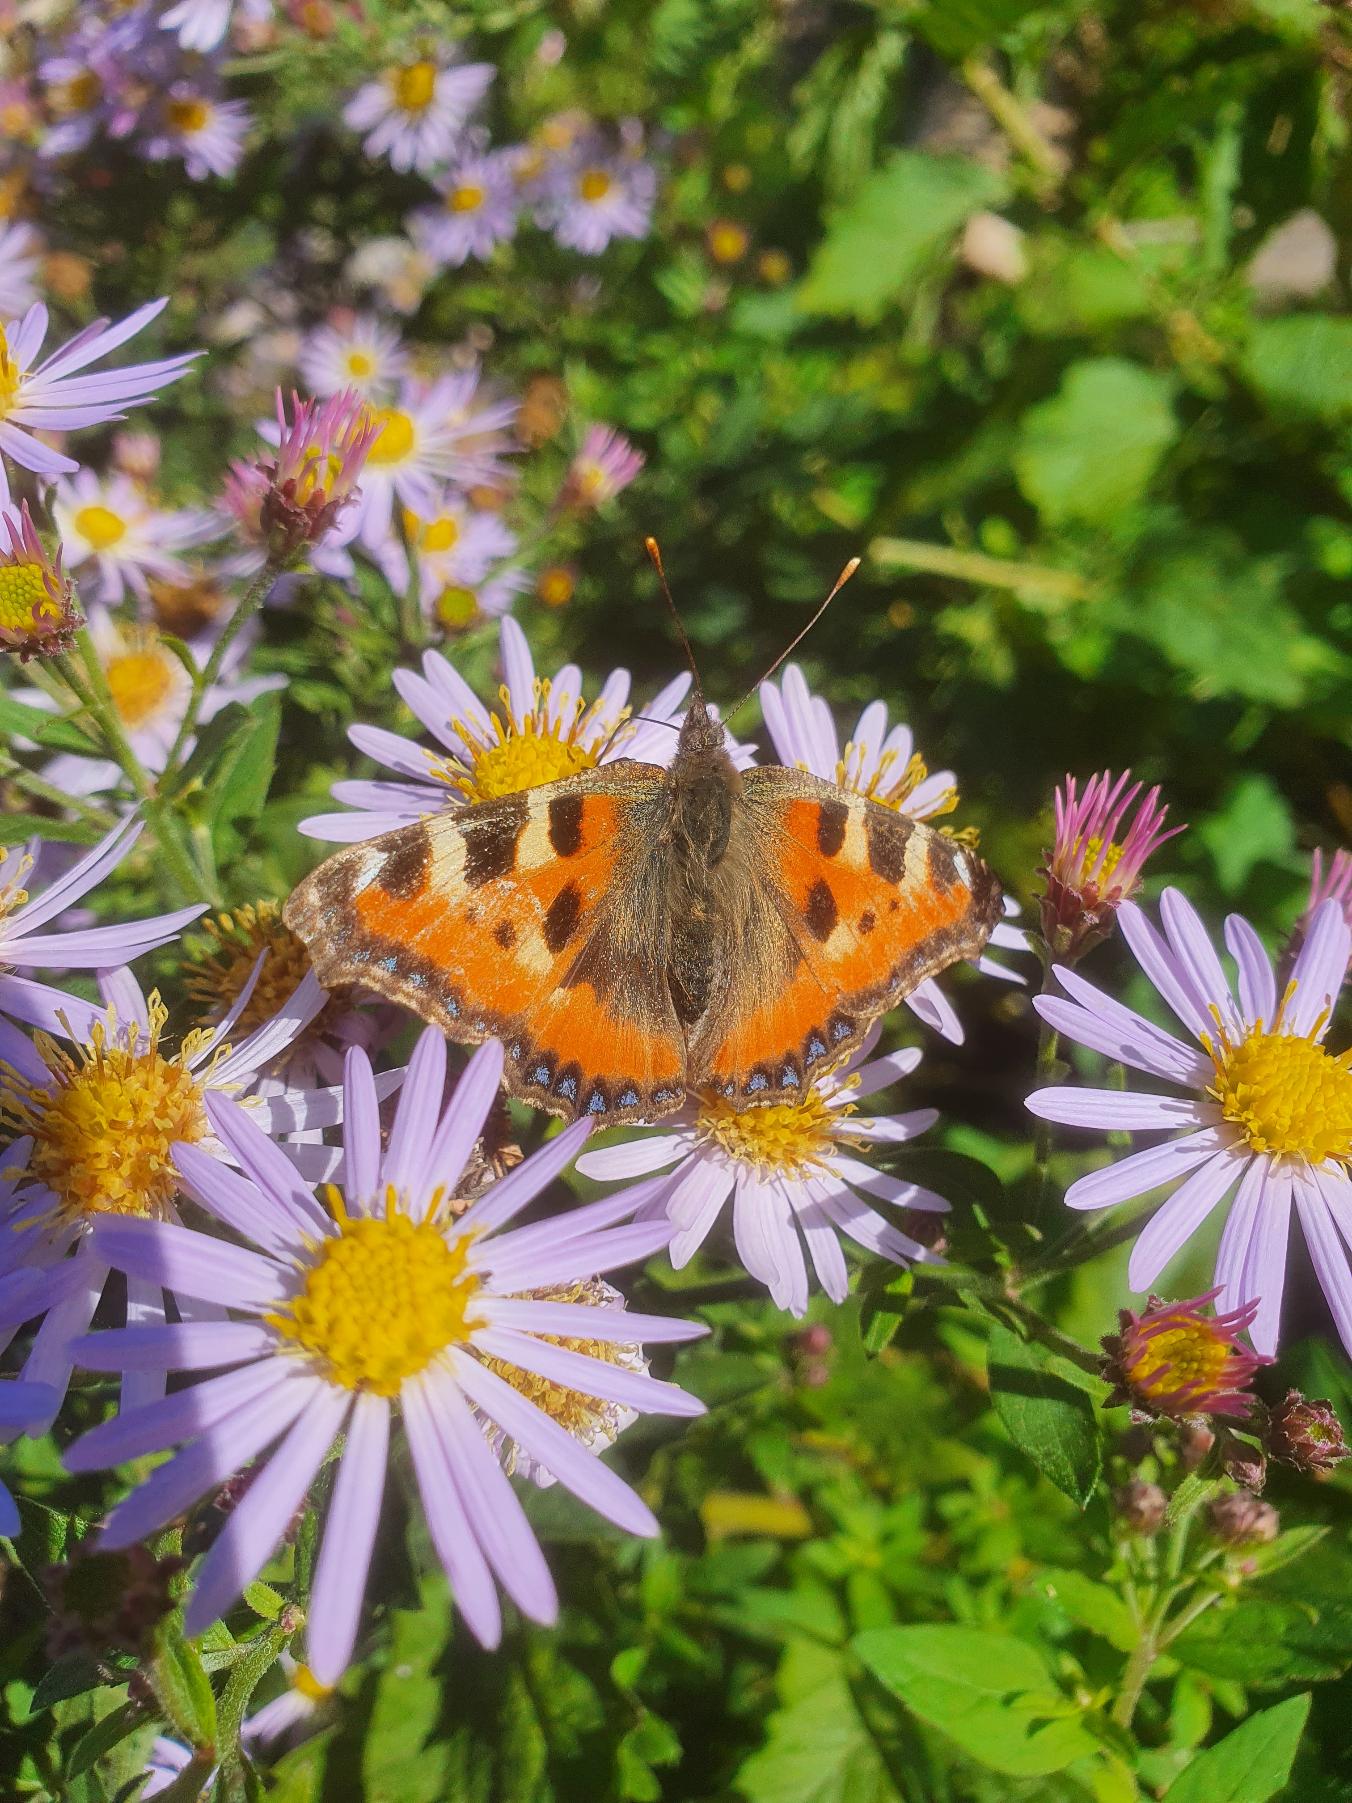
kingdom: Animalia
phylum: Arthropoda
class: Insecta
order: Lepidoptera
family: Nymphalidae
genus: Aglais
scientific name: Aglais urticae
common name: Nældens takvinge
